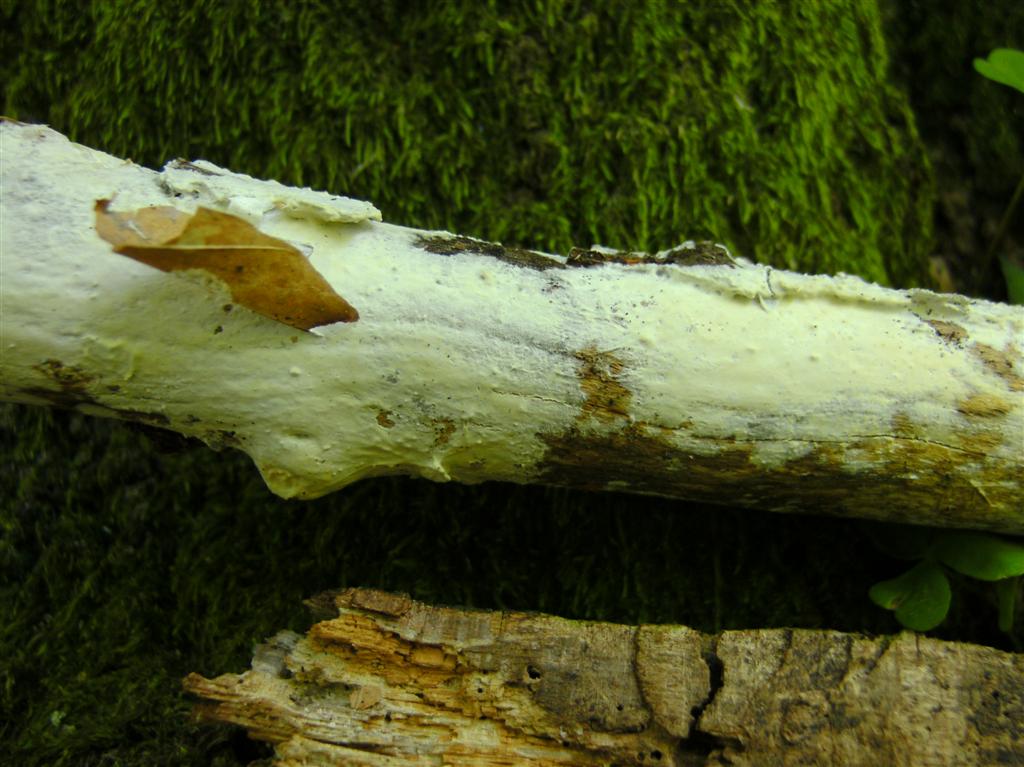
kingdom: Fungi
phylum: Basidiomycota
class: Agaricomycetes
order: Polyporales
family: Irpicaceae
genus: Efibula
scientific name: Efibula tuberculata
